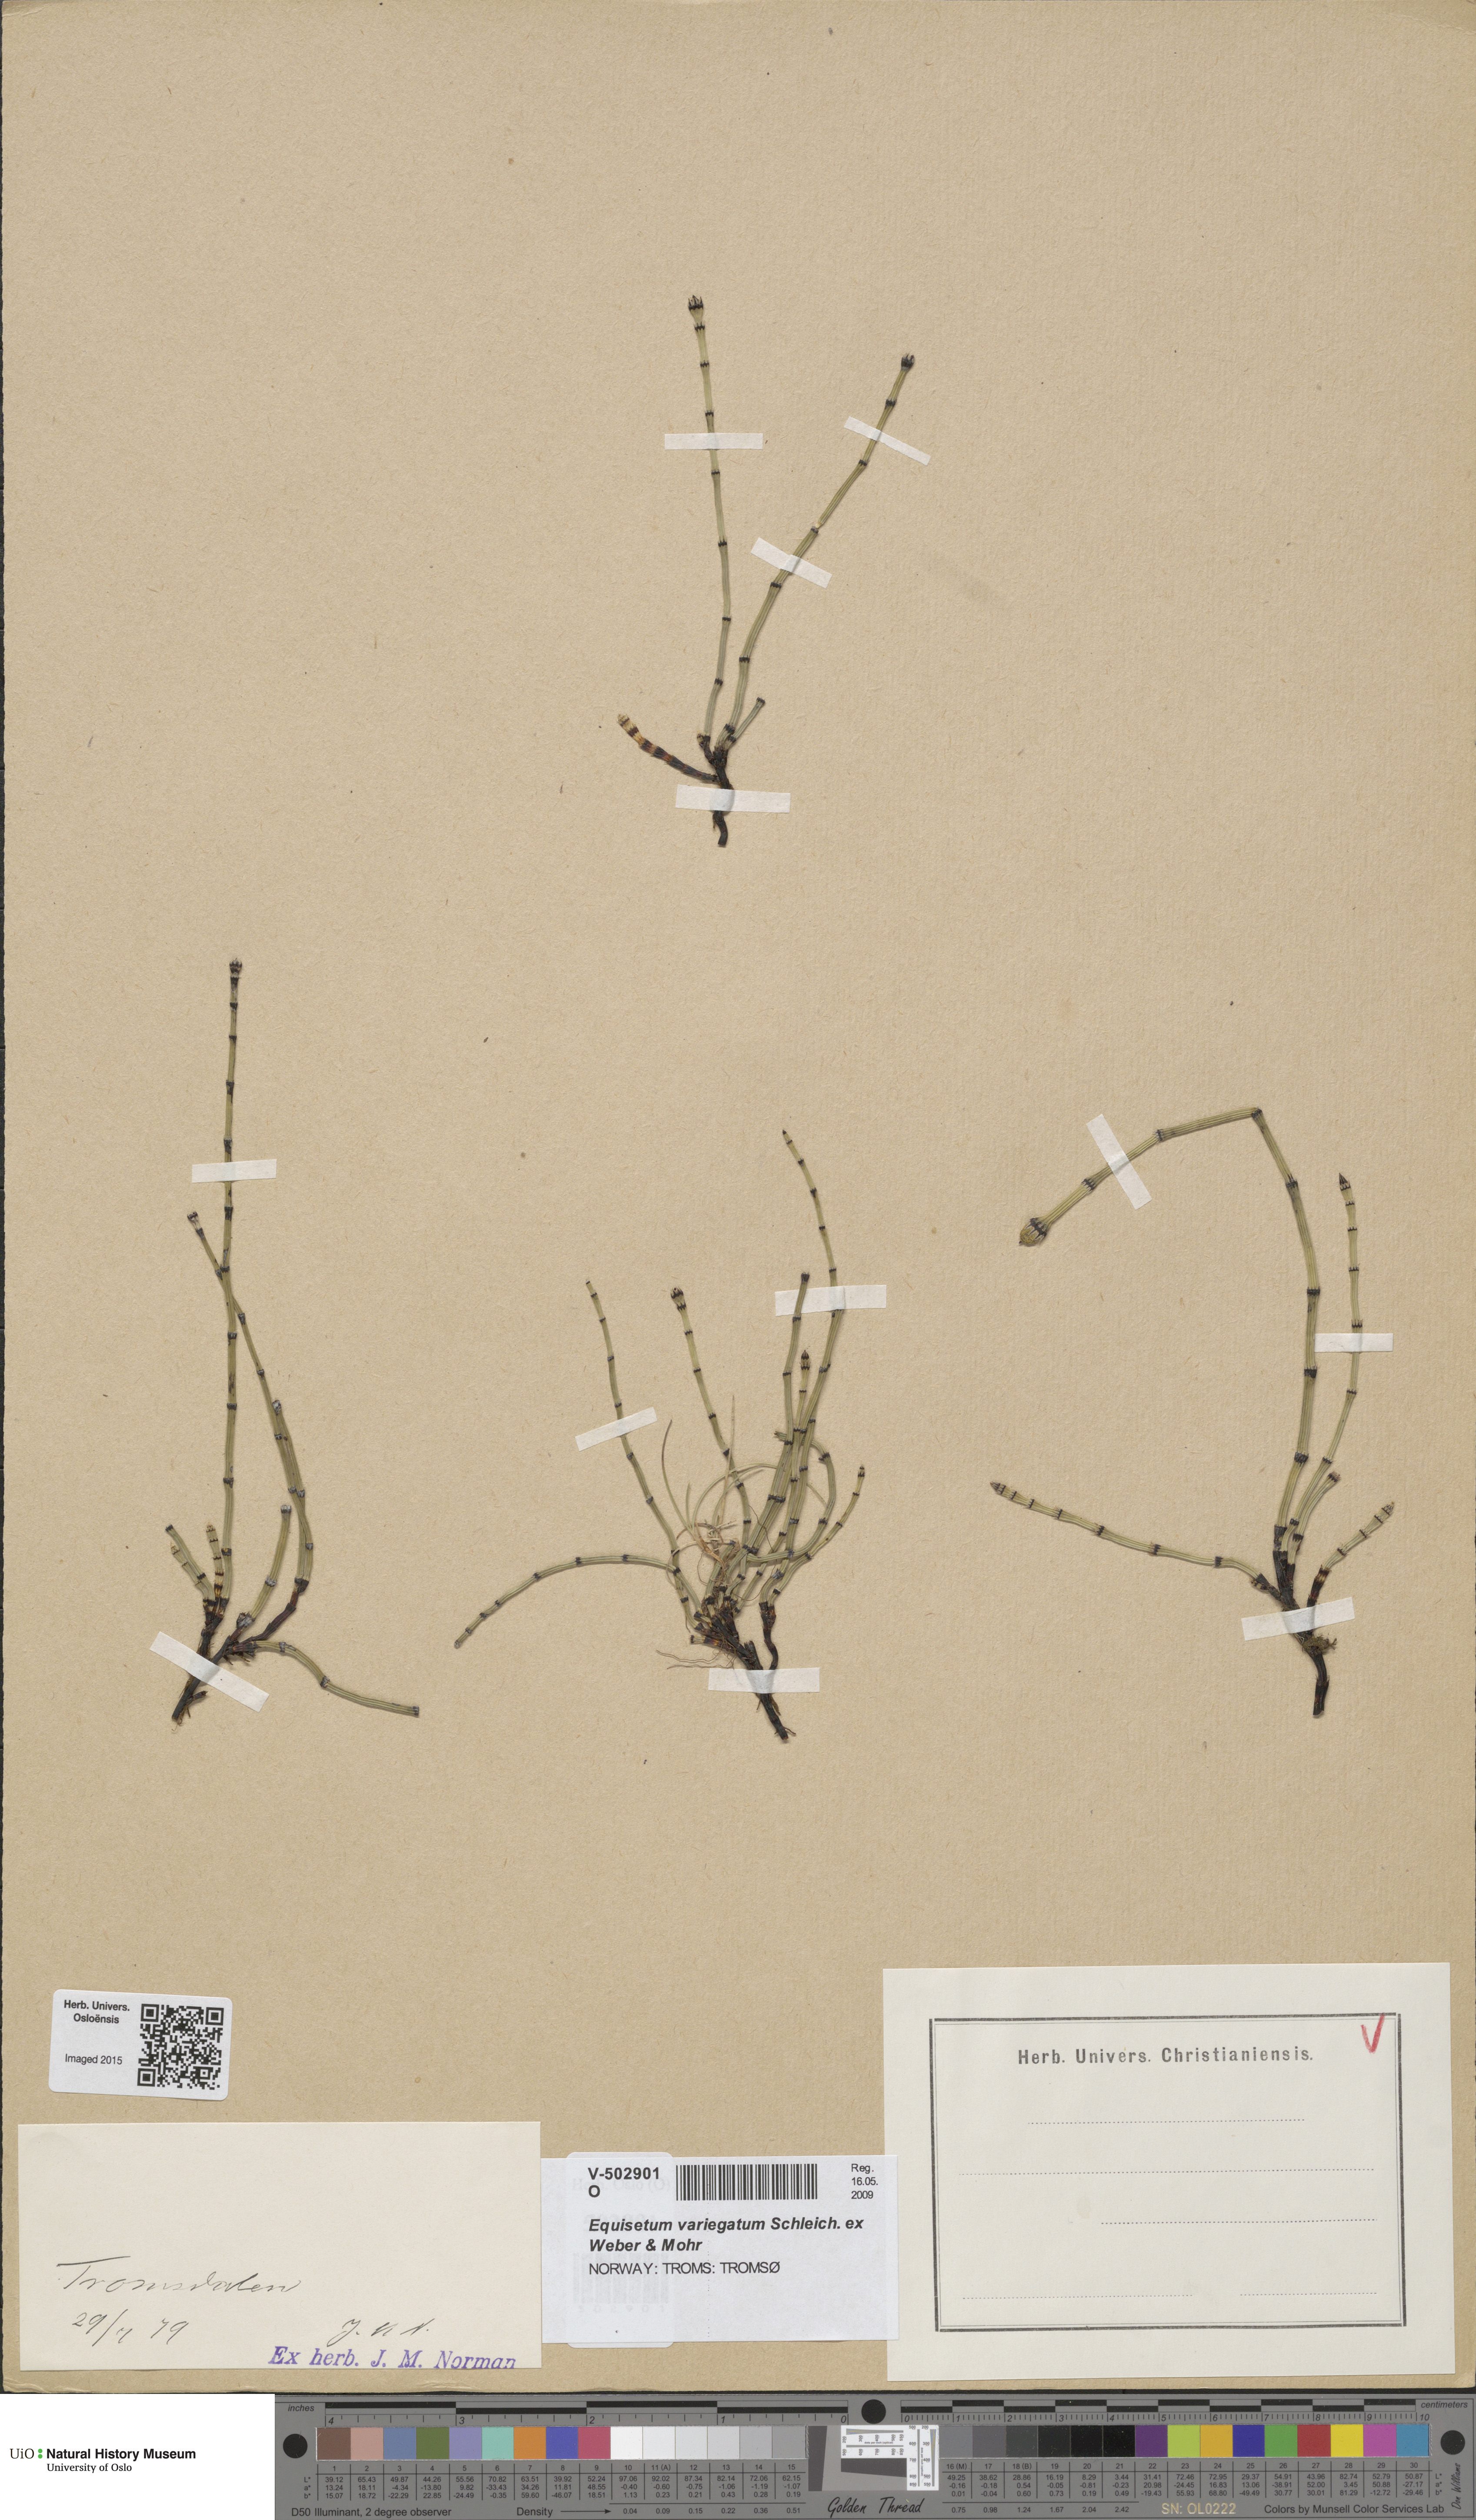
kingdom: Plantae
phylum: Tracheophyta
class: Polypodiopsida
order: Equisetales
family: Equisetaceae
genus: Equisetum
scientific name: Equisetum variegatum
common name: Variegated horsetail
